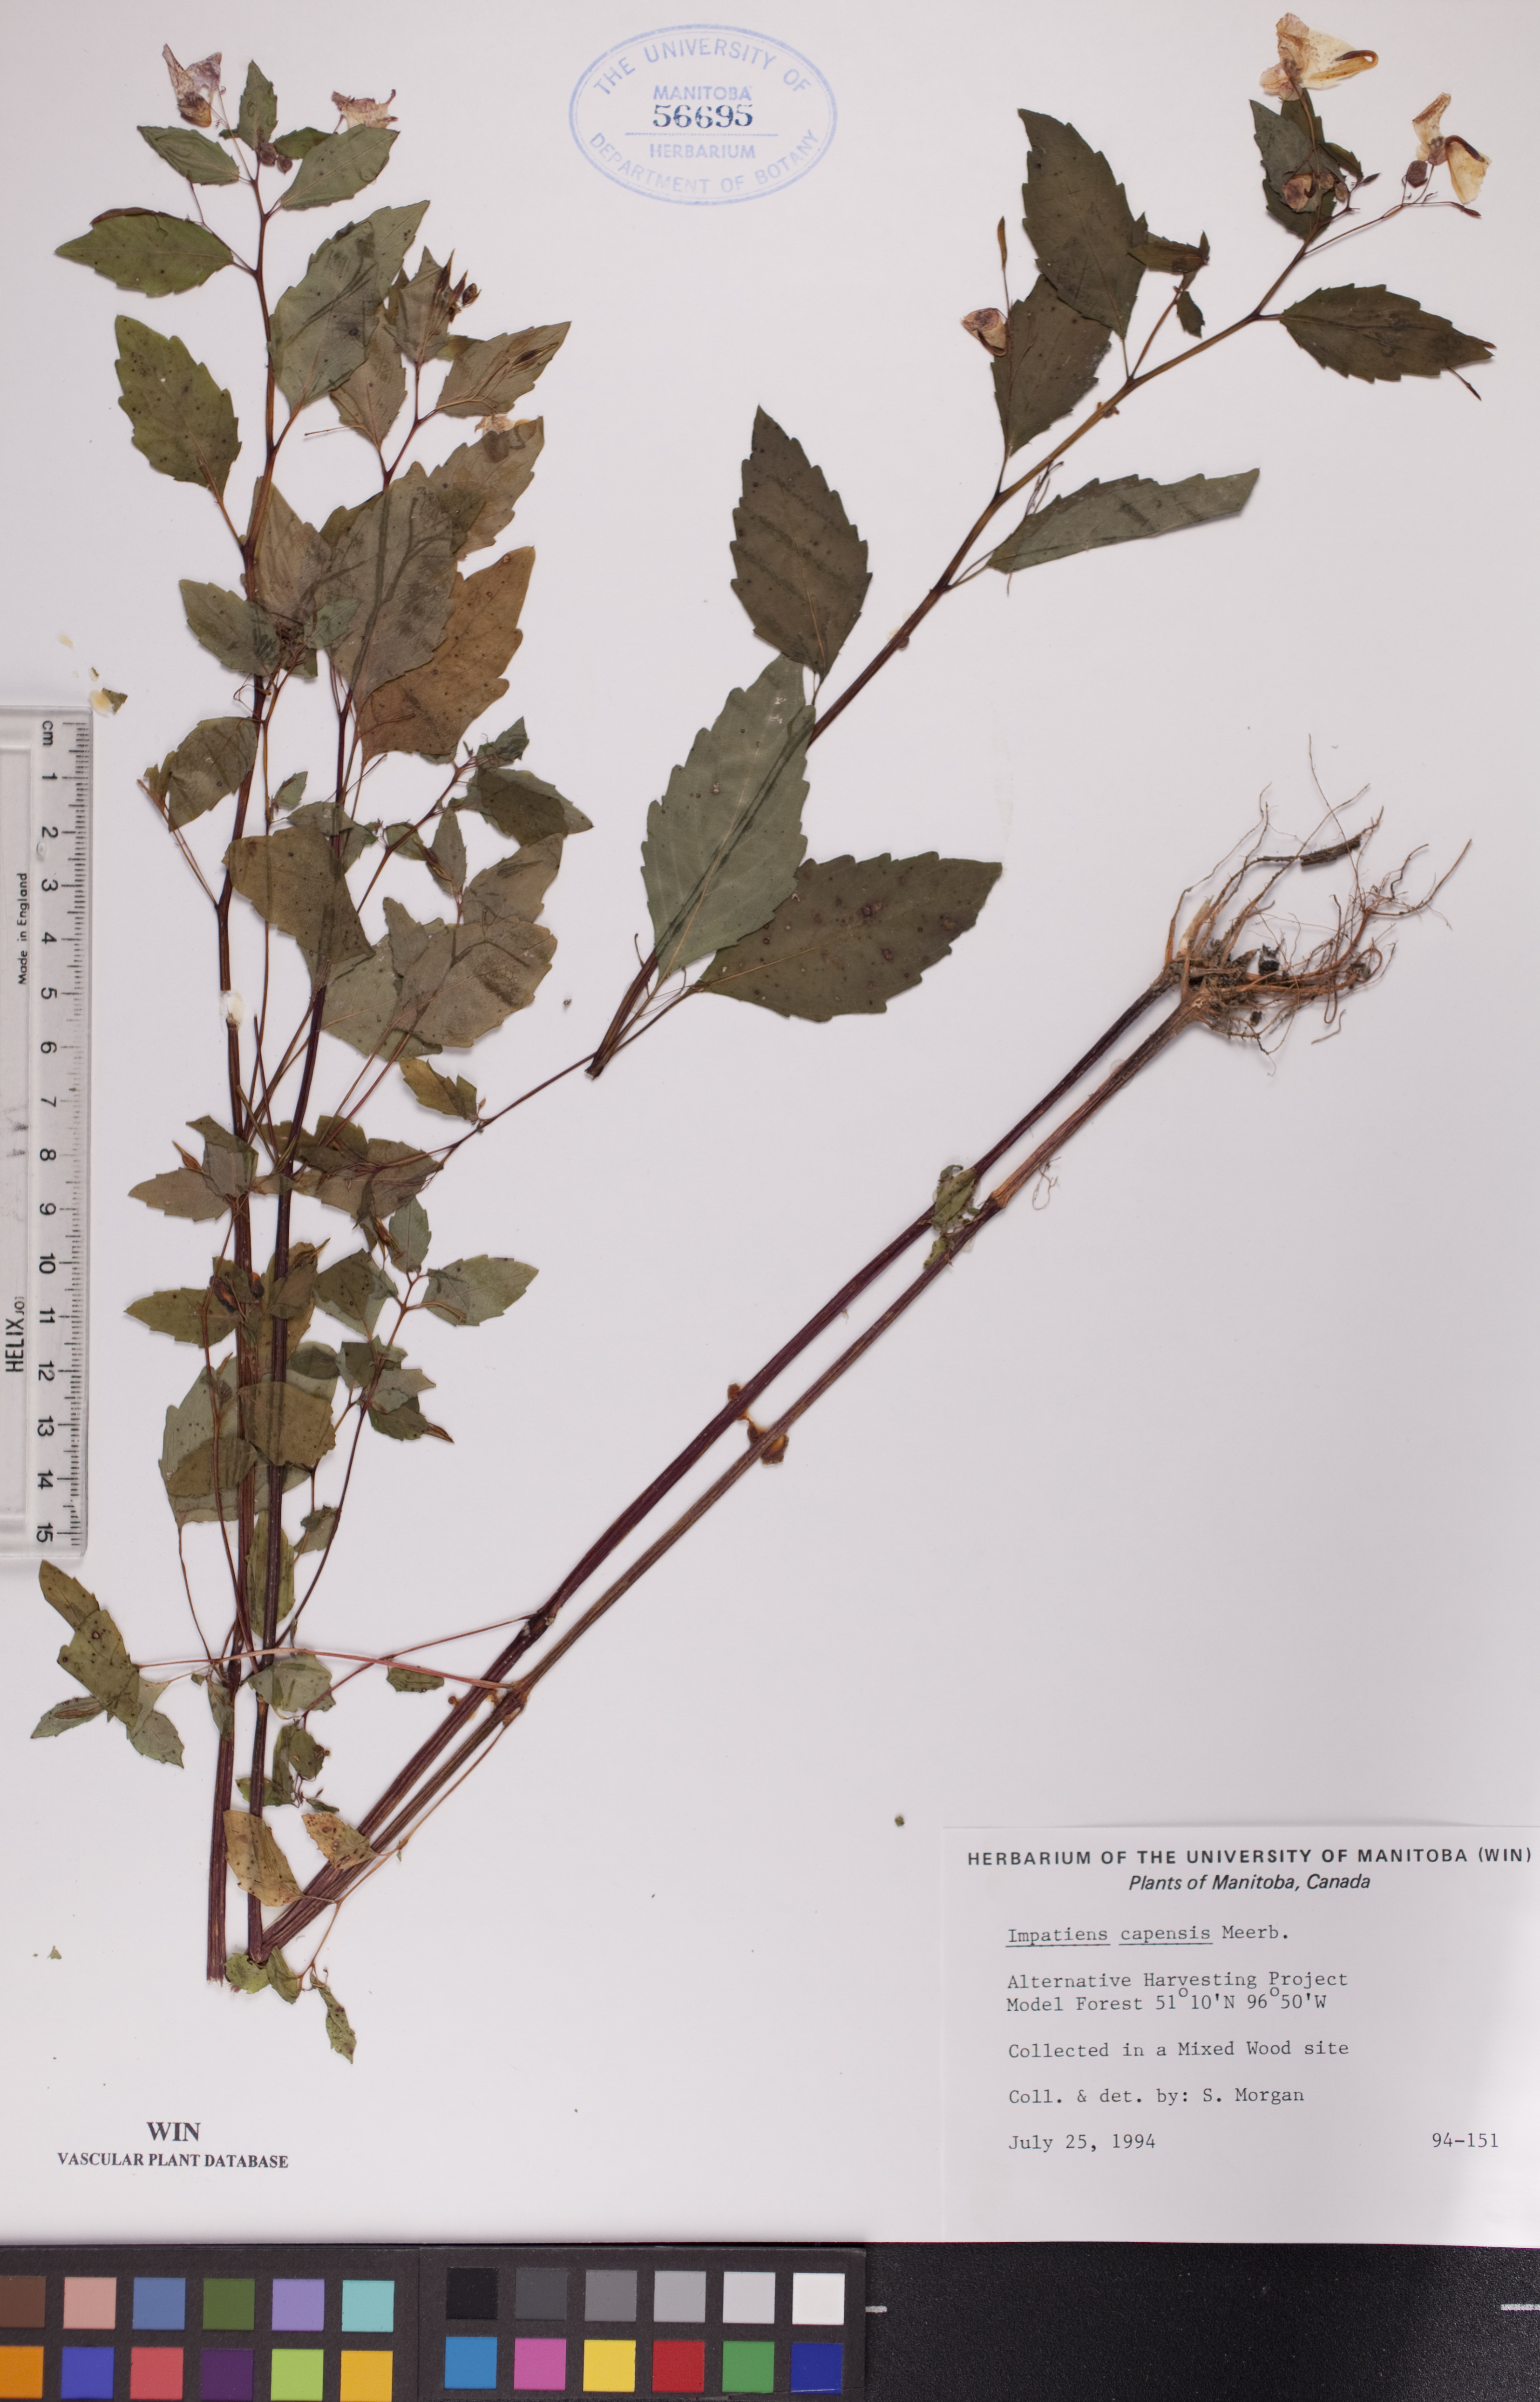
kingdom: Plantae
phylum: Tracheophyta
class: Magnoliopsida
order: Ericales
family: Balsaminaceae
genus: Impatiens
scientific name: Impatiens capensis
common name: Orange balsam
